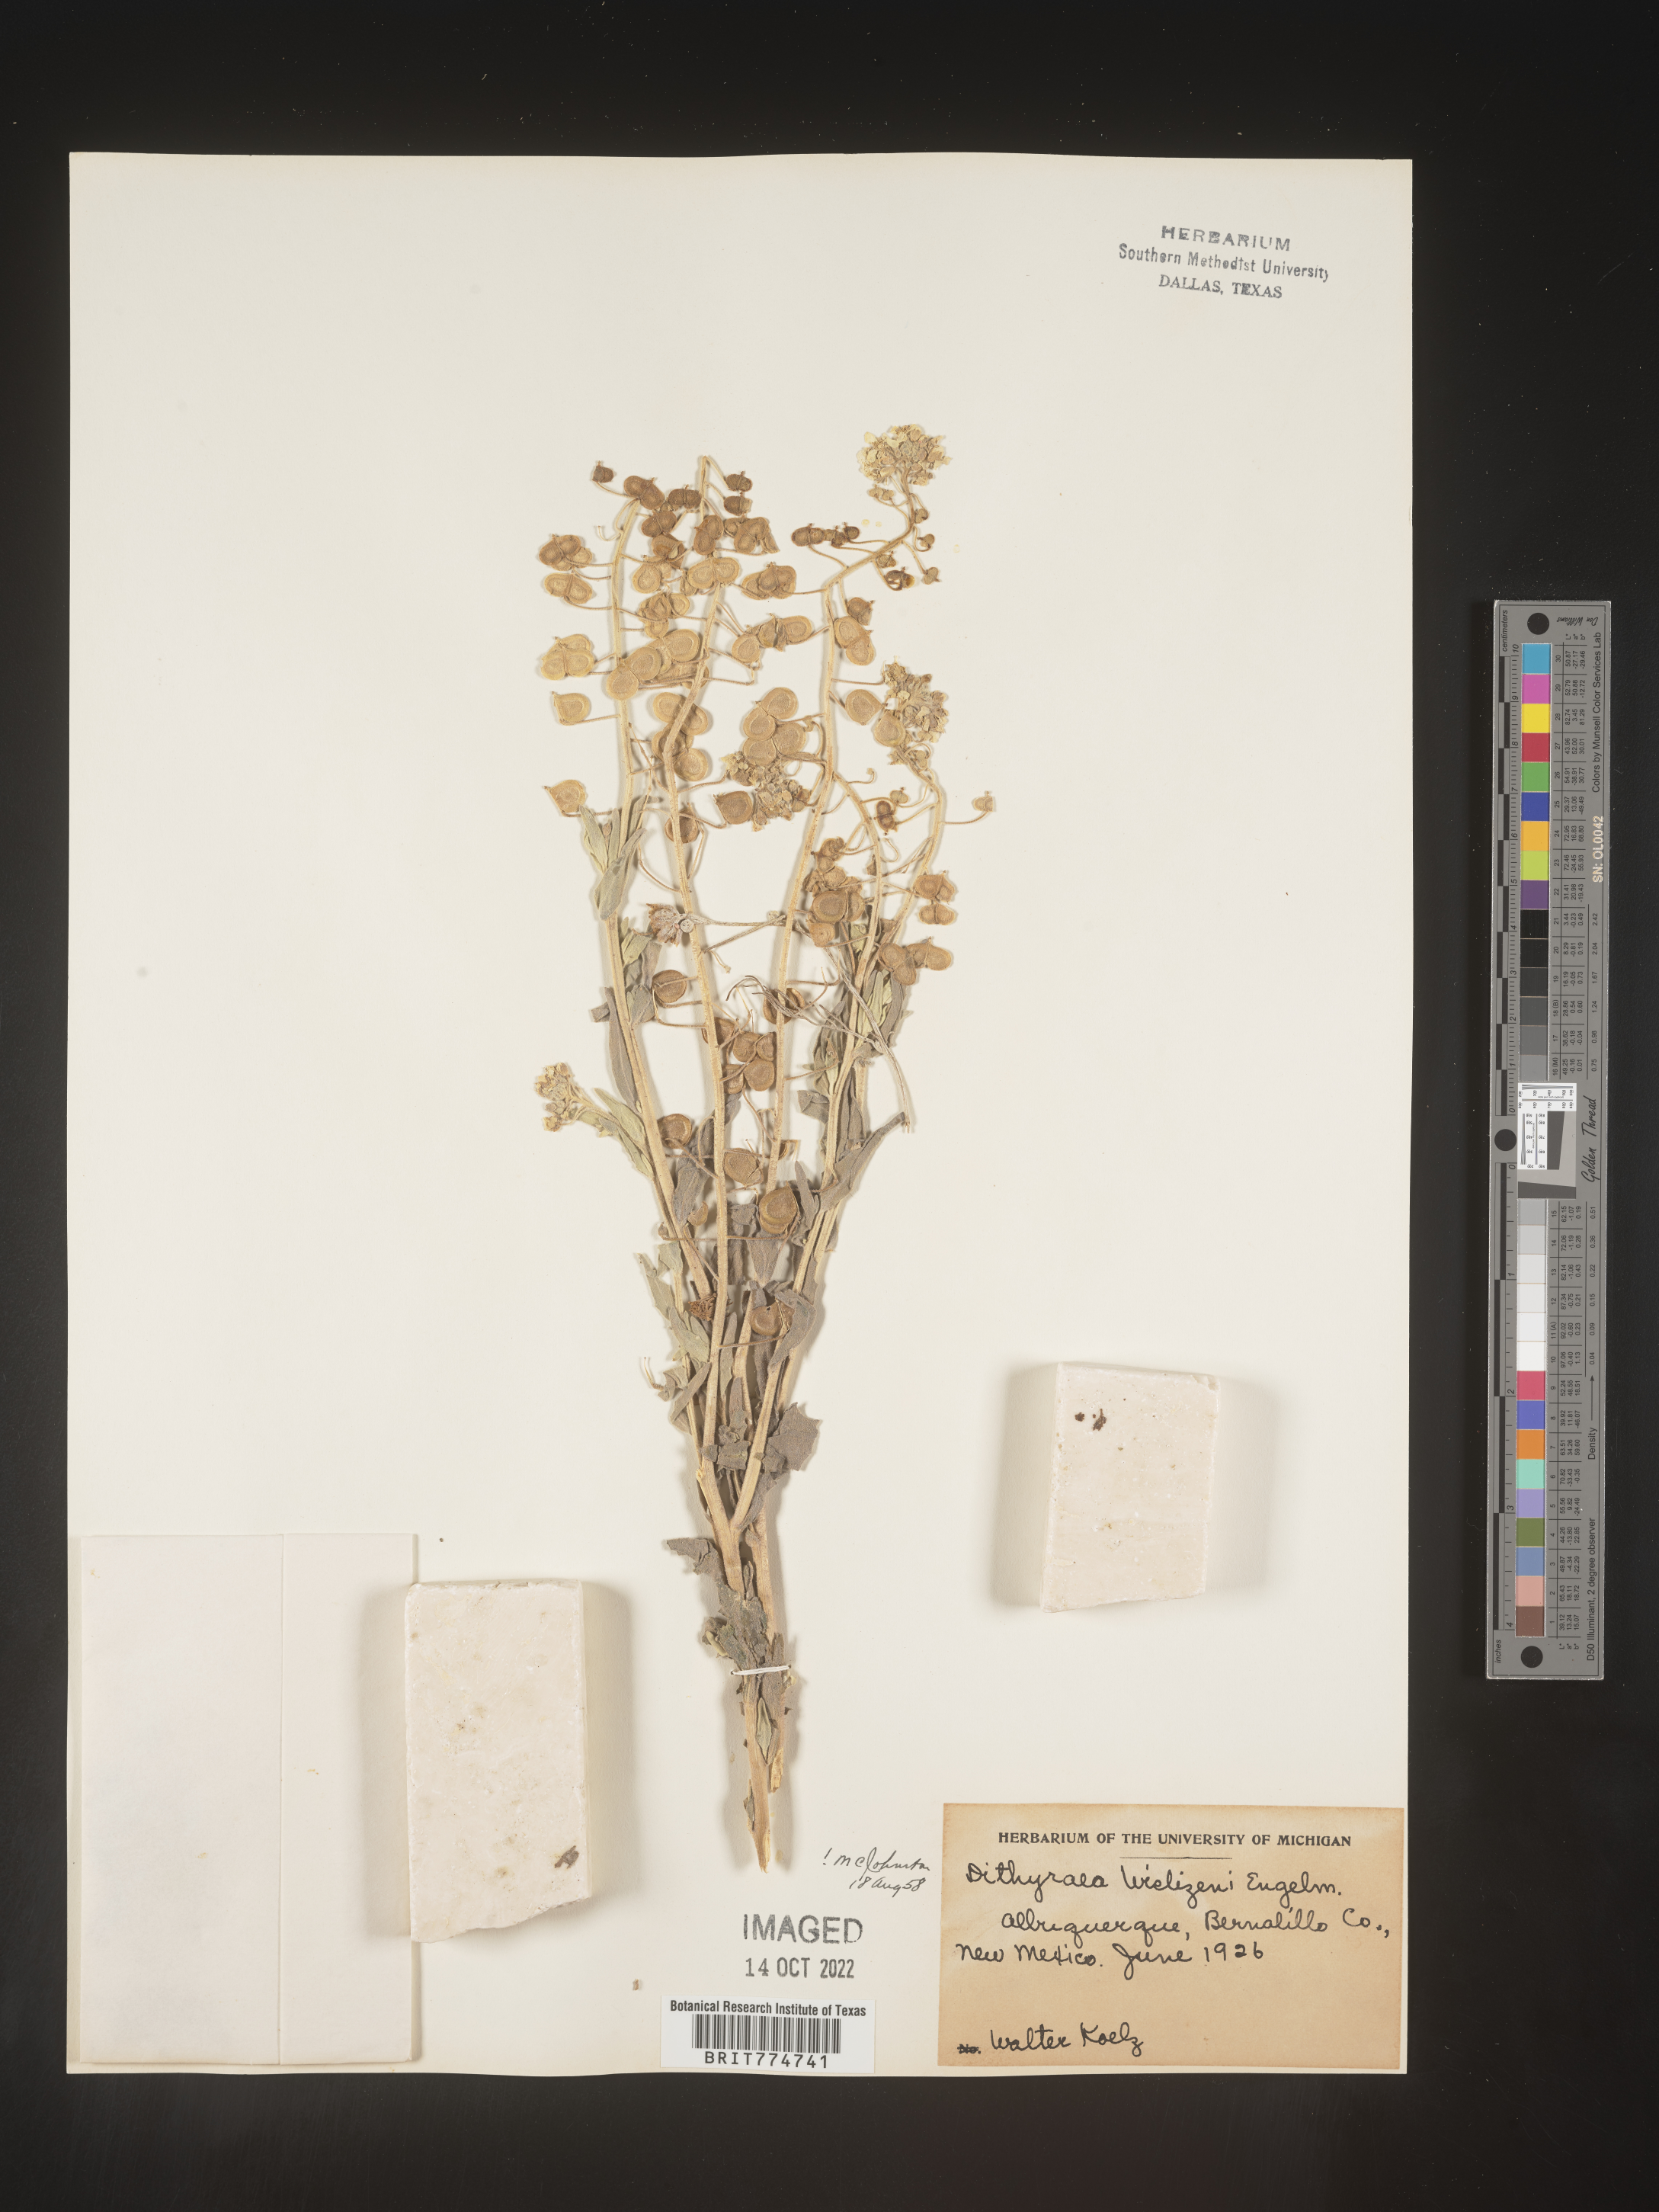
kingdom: Plantae
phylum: Tracheophyta
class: Magnoliopsida
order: Brassicales
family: Brassicaceae
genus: Dimorphocarpa
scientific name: Dimorphocarpa wislizenii
